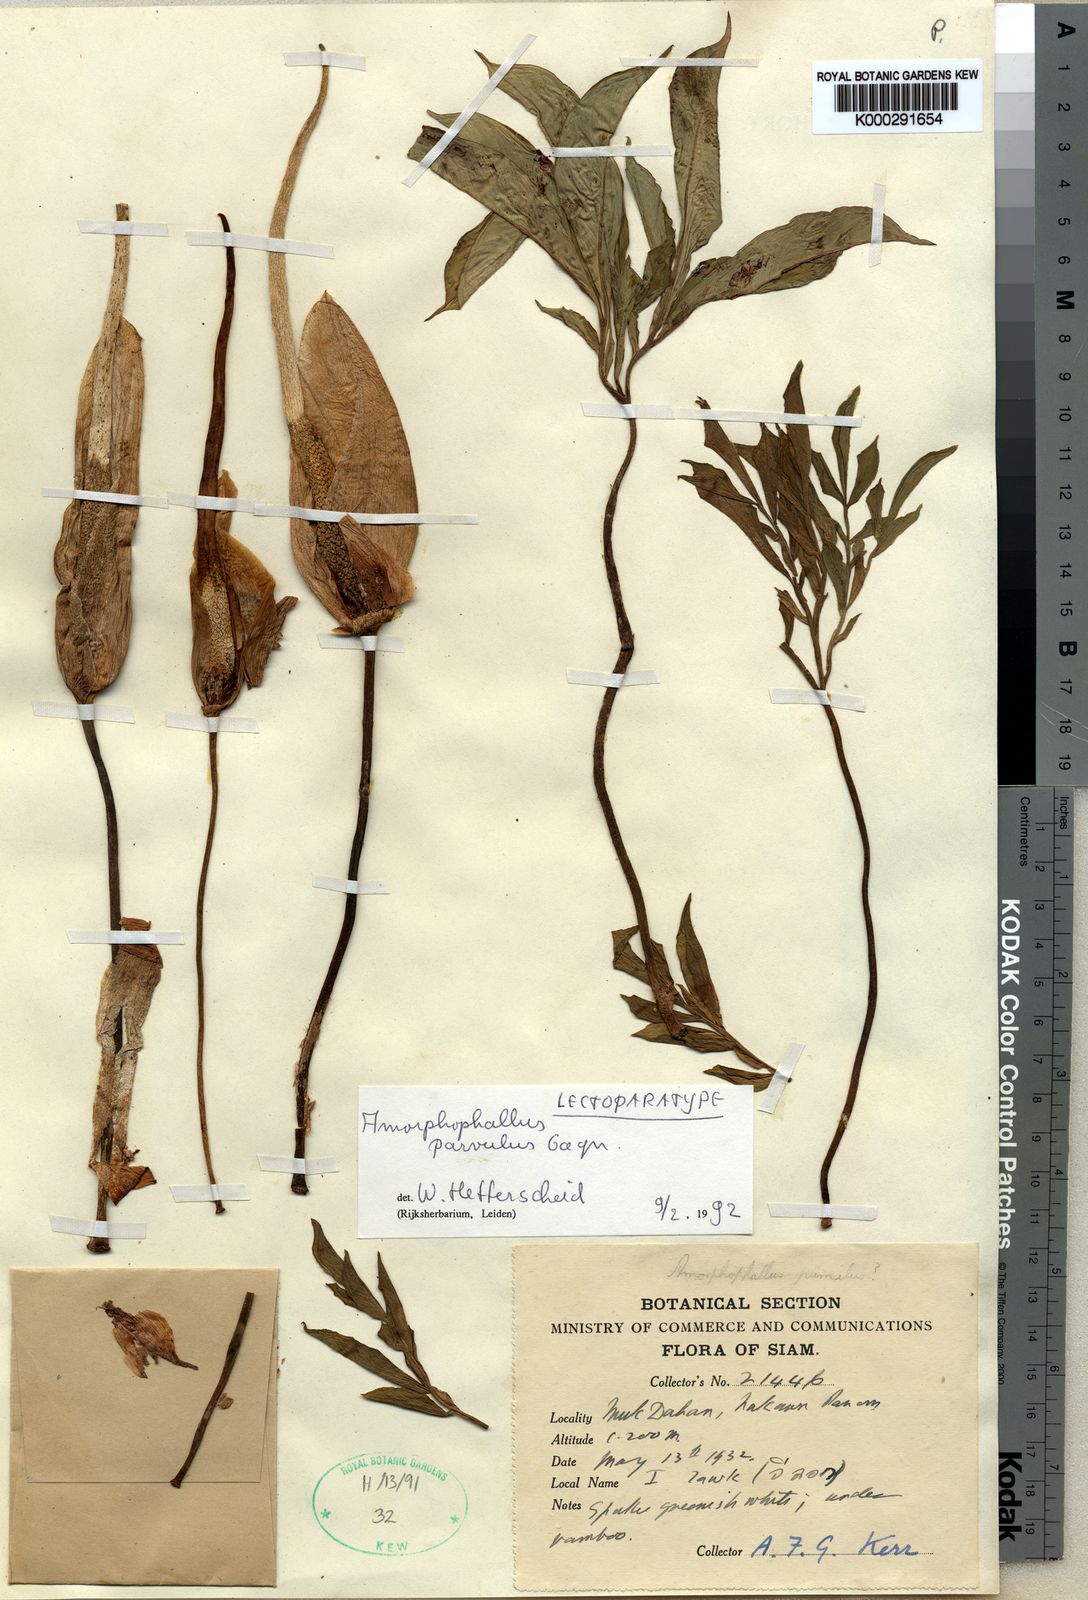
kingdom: Plantae
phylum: Tracheophyta
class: Liliopsida
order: Alismatales
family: Araceae
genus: Amorphophallus
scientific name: Amorphophallus harmandii
